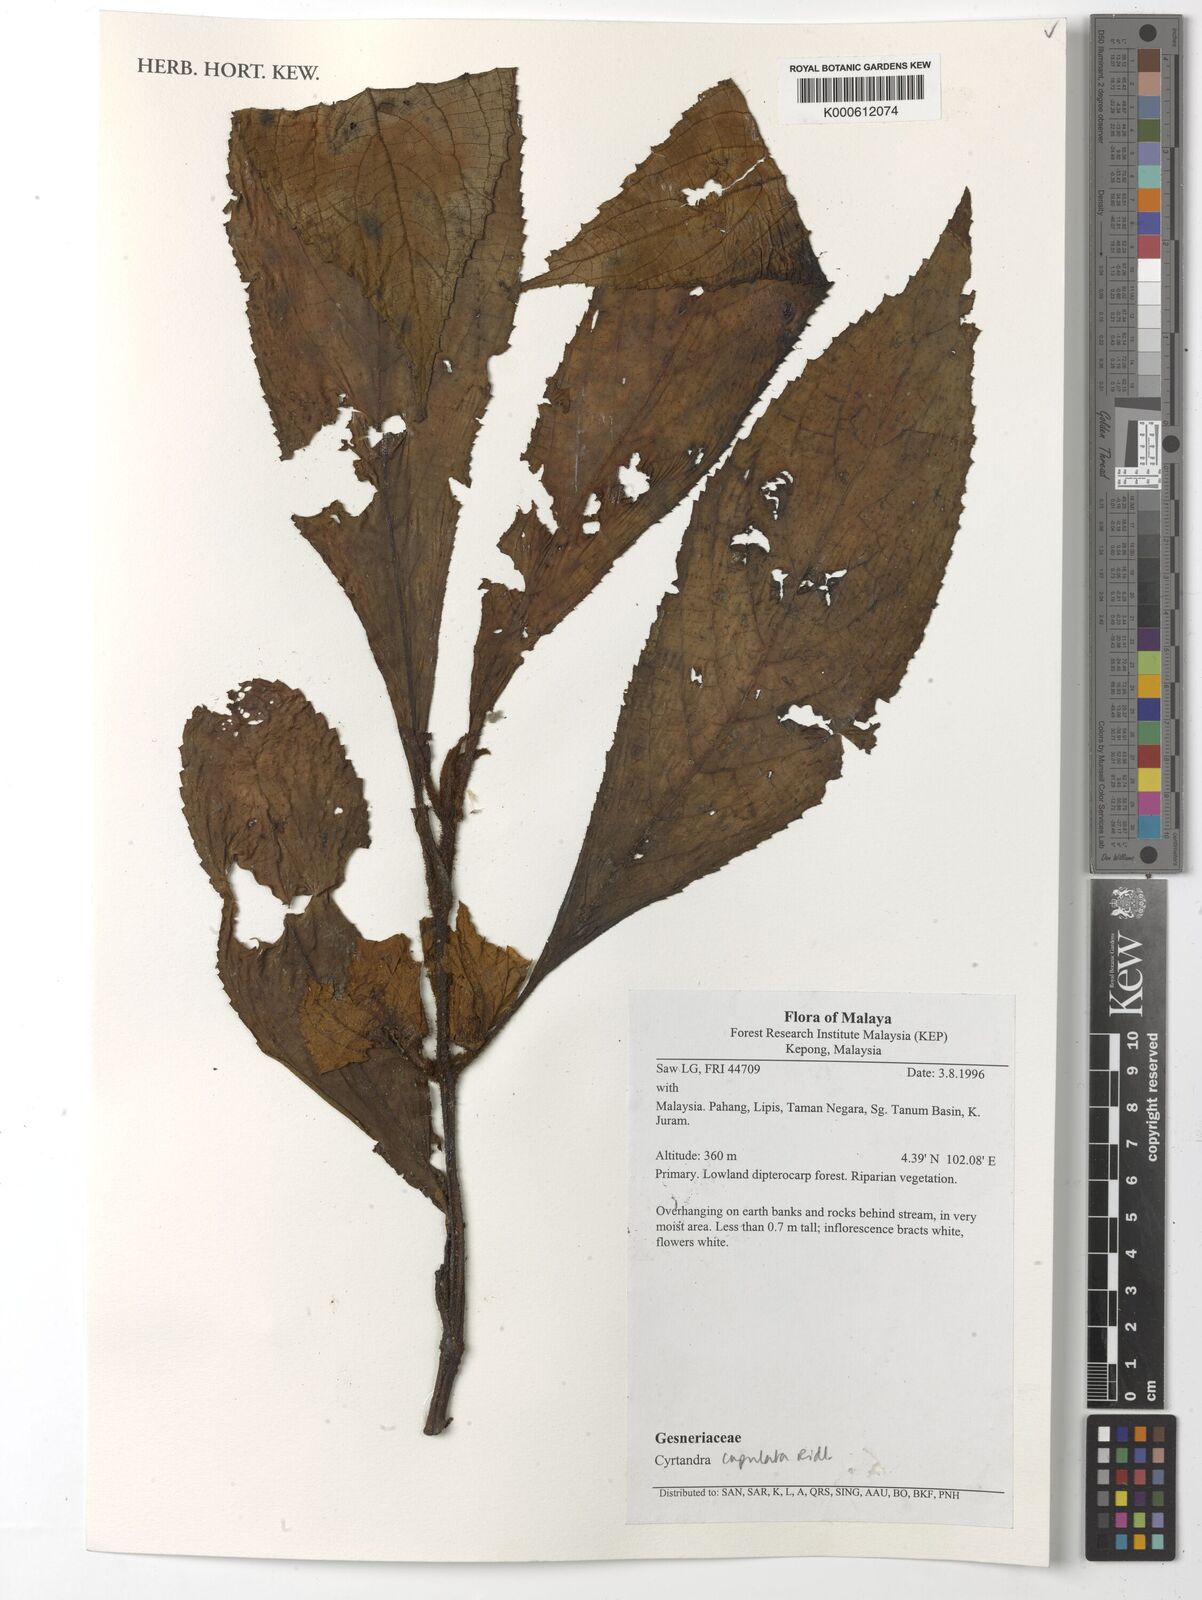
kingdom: Plantae
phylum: Tracheophyta
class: Magnoliopsida
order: Lamiales
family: Gesneriaceae
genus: Cyrtandra
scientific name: Cyrtandra cupulata
